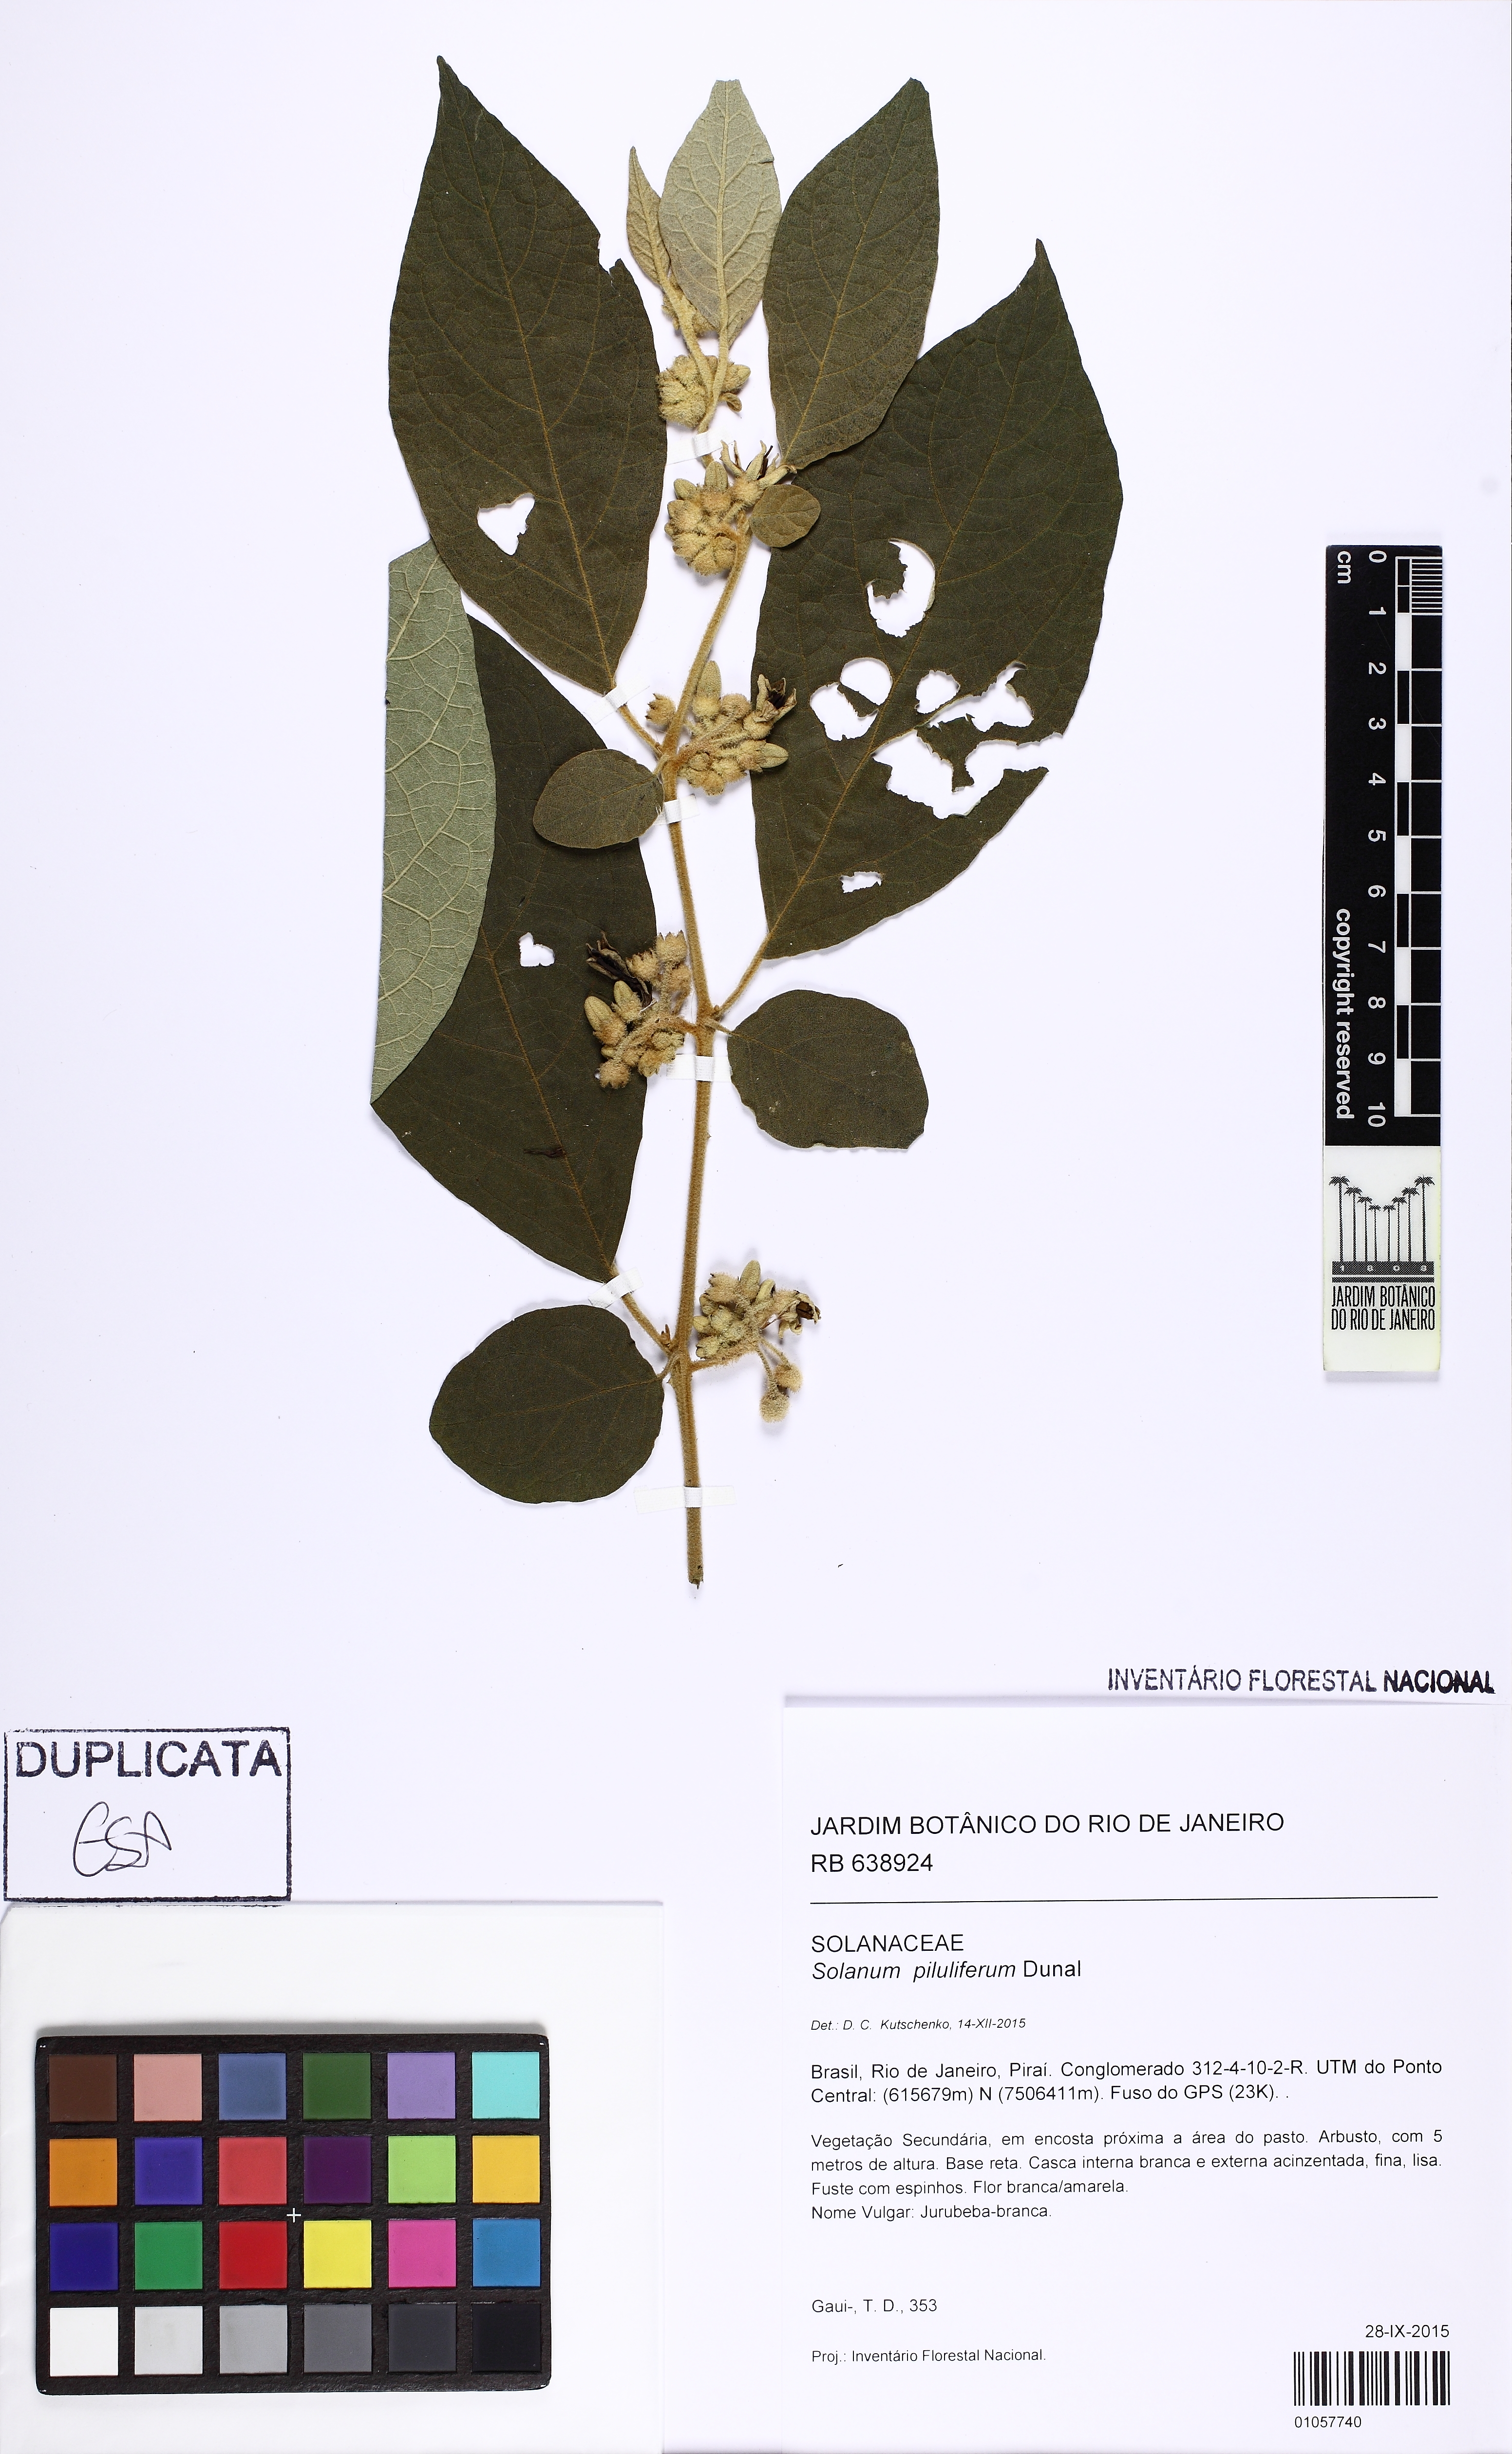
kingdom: Plantae
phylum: Tracheophyta
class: Magnoliopsida
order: Solanales
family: Solanaceae
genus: Solanum
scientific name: Solanum piluliferum
